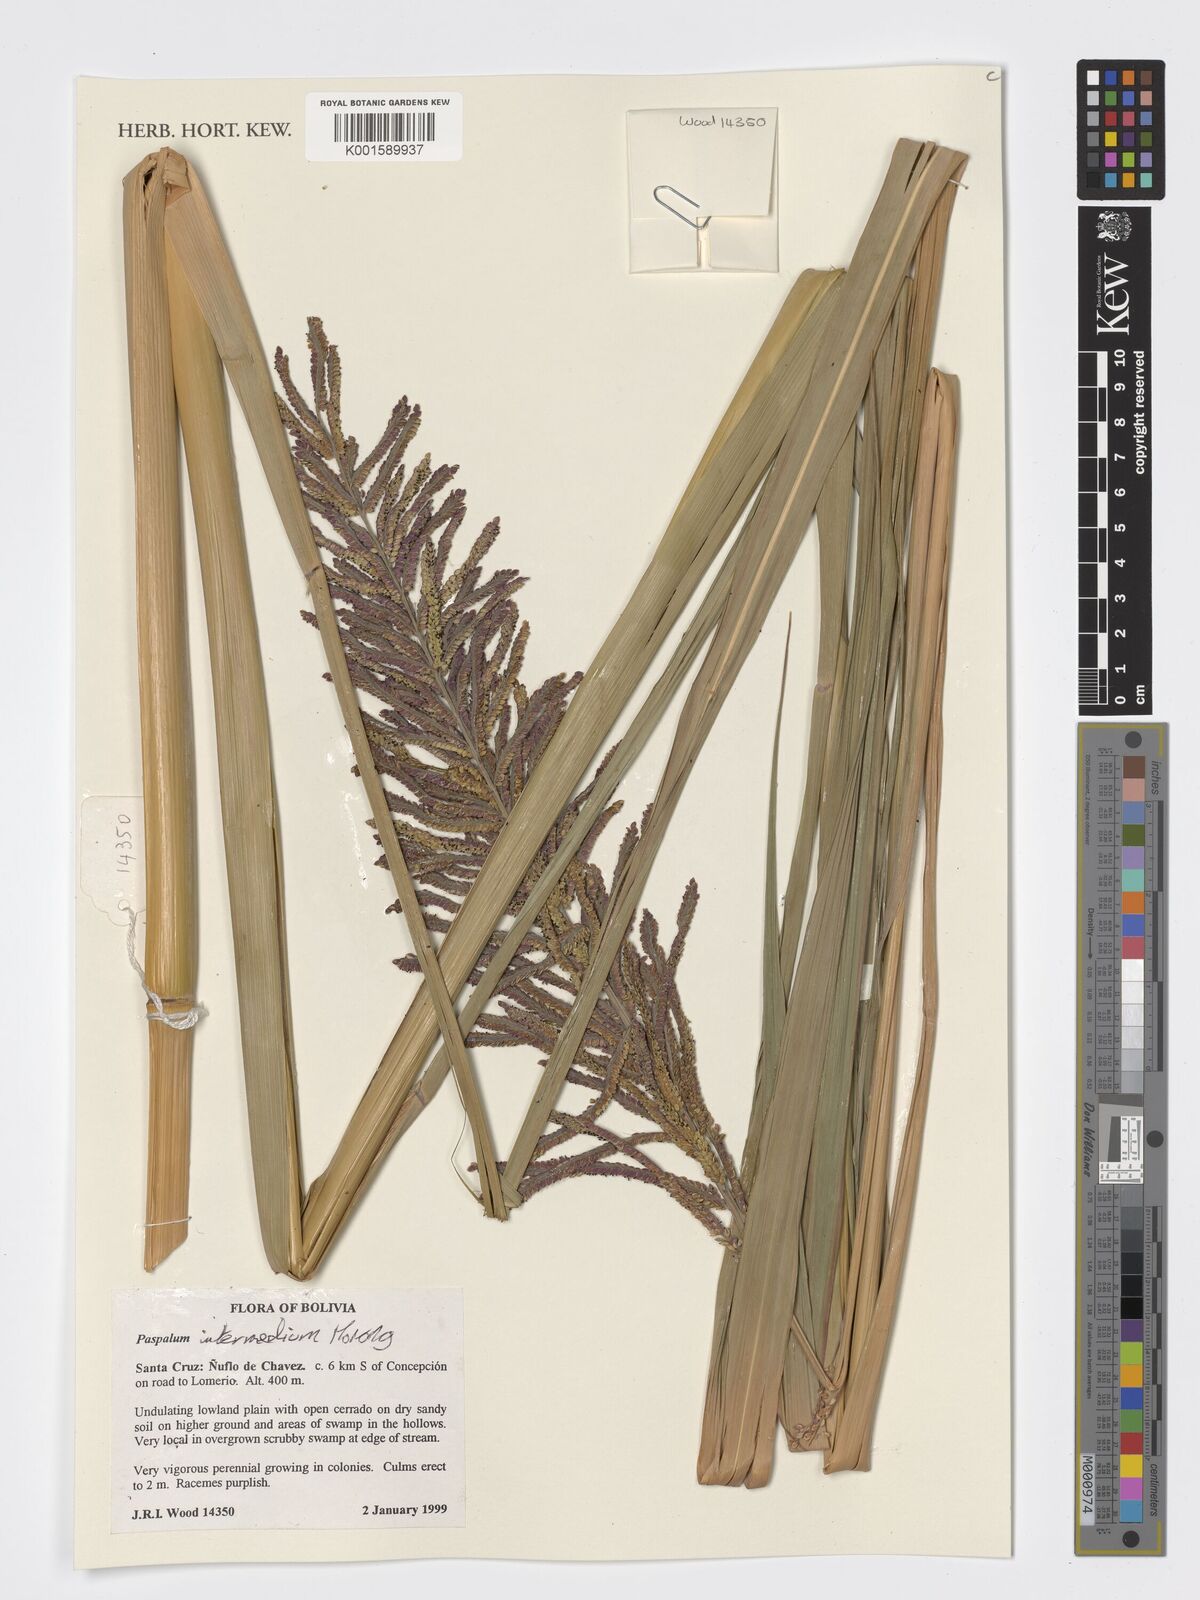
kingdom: Plantae
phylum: Tracheophyta
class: Liliopsida
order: Poales
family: Poaceae
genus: Paspalum
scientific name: Paspalum intermedium
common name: Intermediate paspalum
